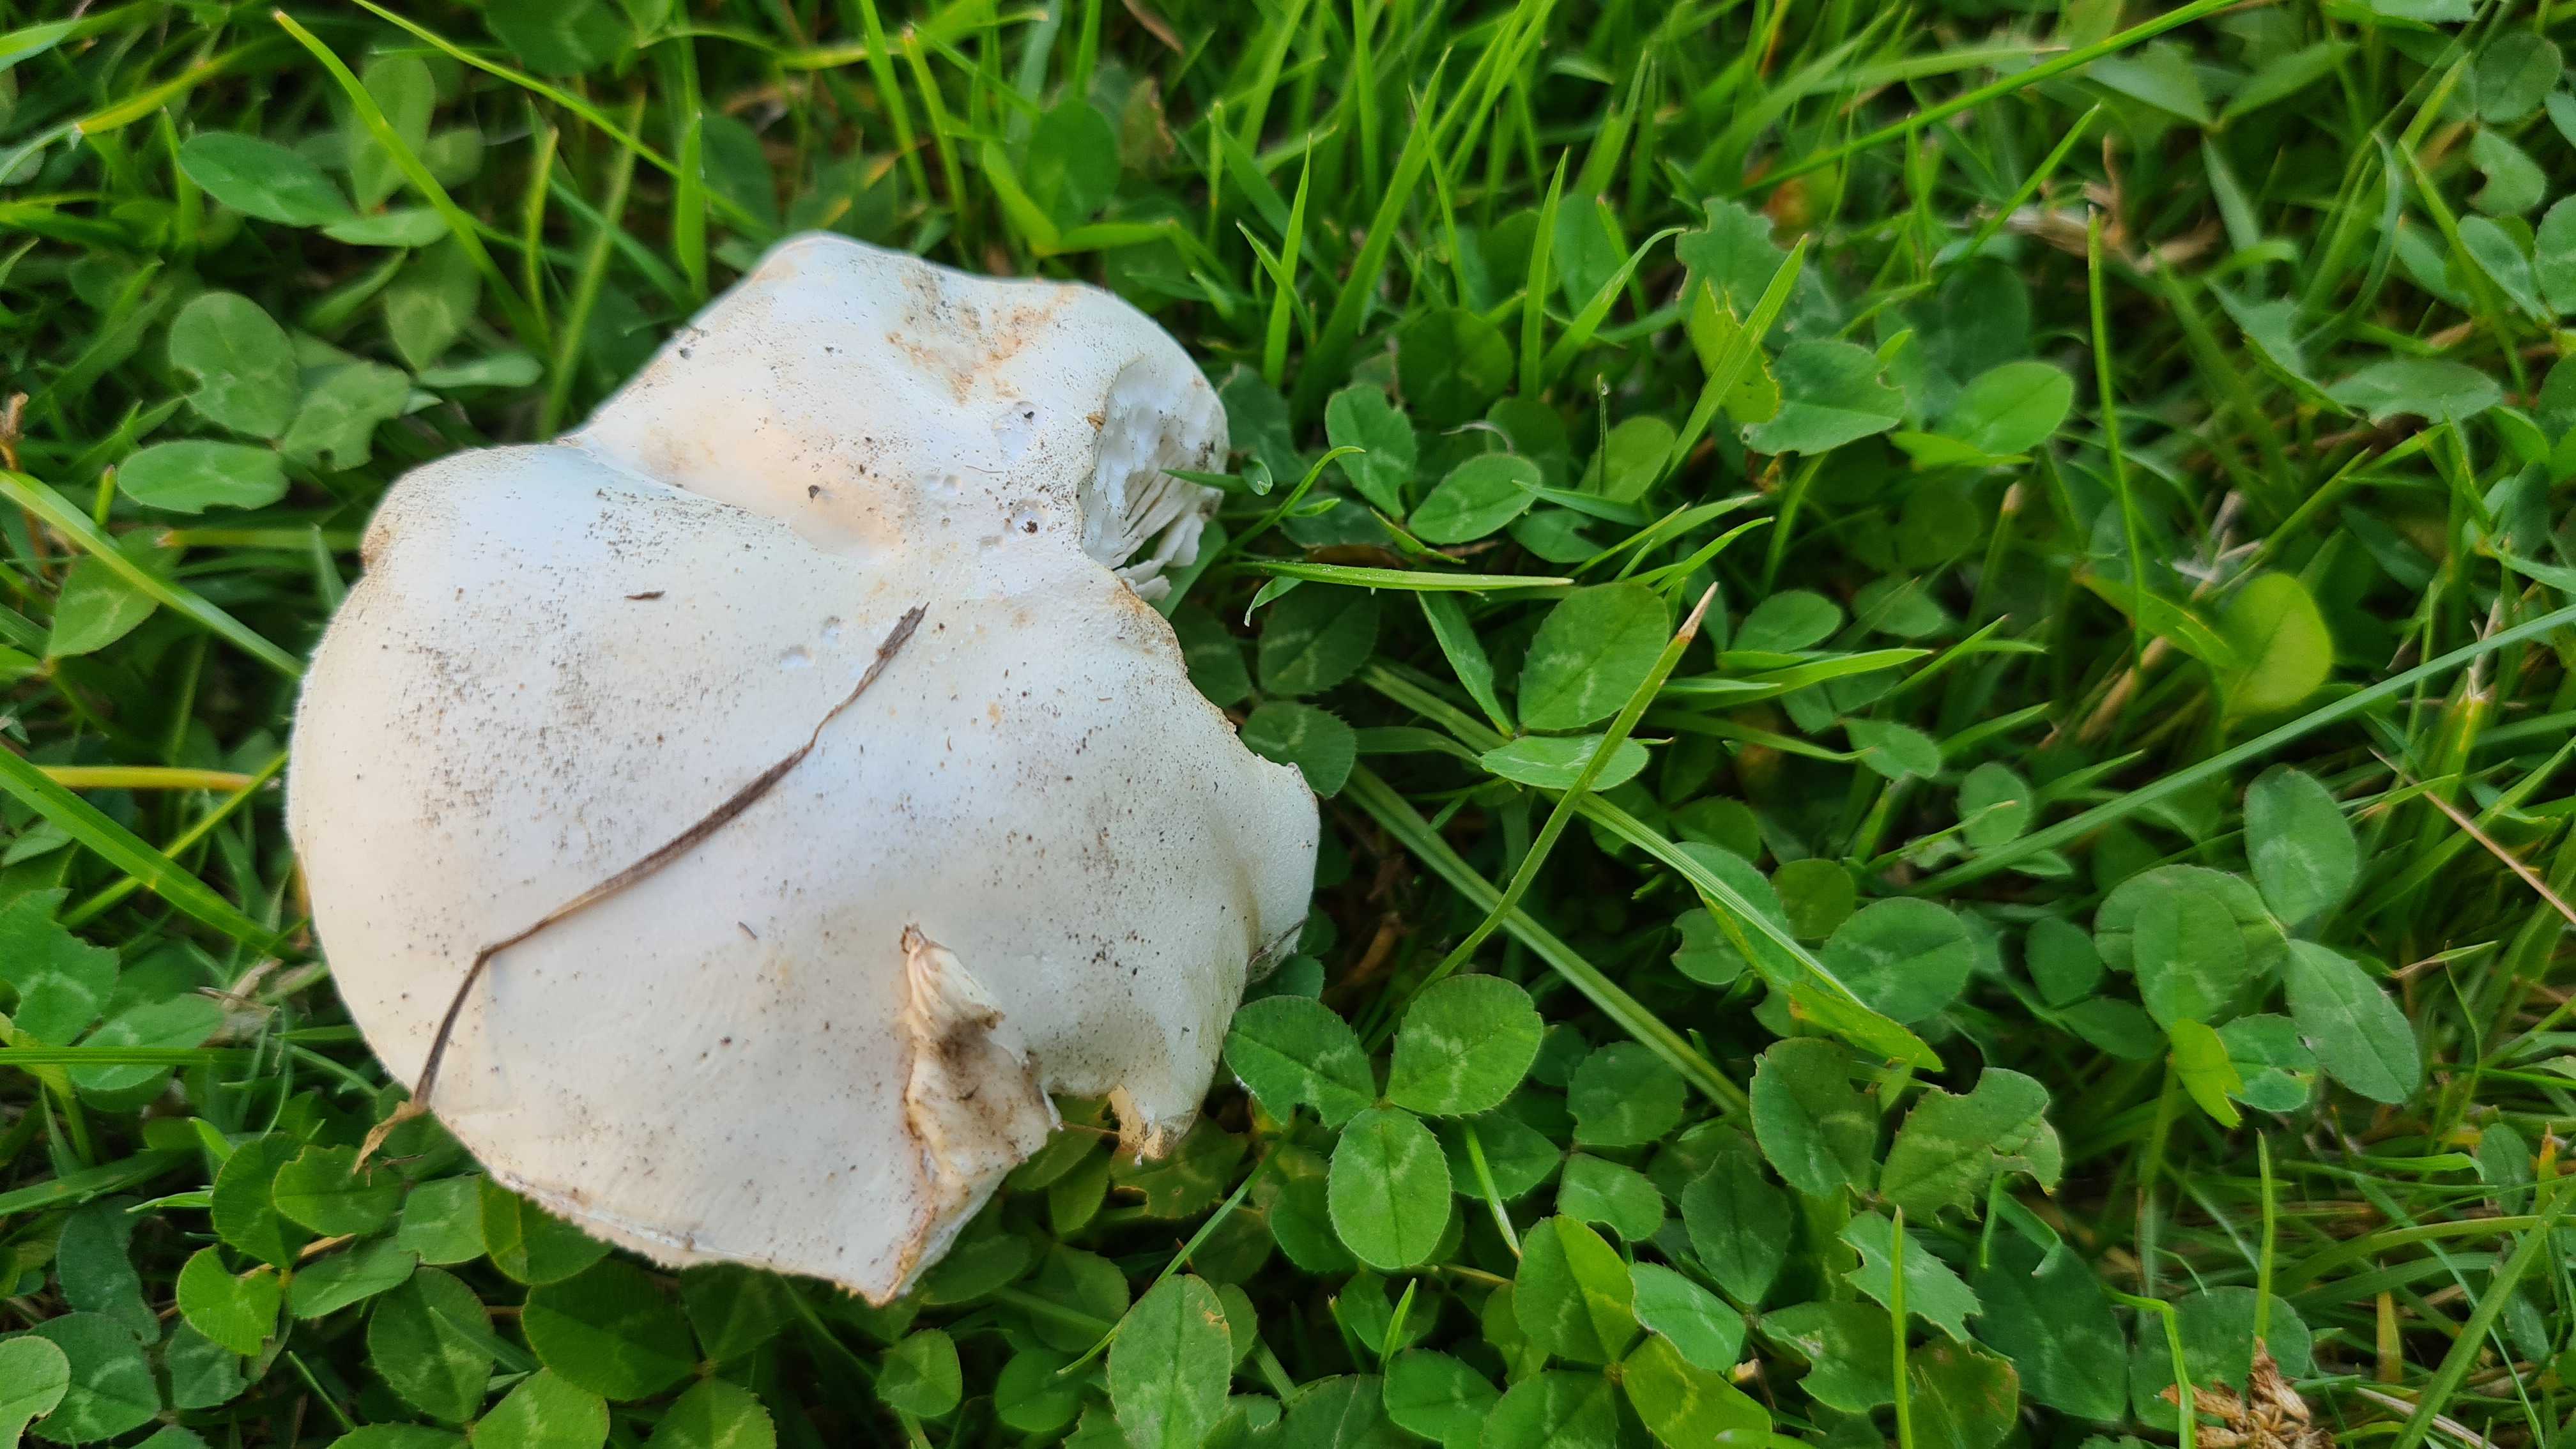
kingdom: Fungi
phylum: Basidiomycota
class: Agaricomycetes
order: Agaricales
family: Agaricaceae
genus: Leucoagaricus
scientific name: Leucoagaricus leucothites
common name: rosabladet silkehat
